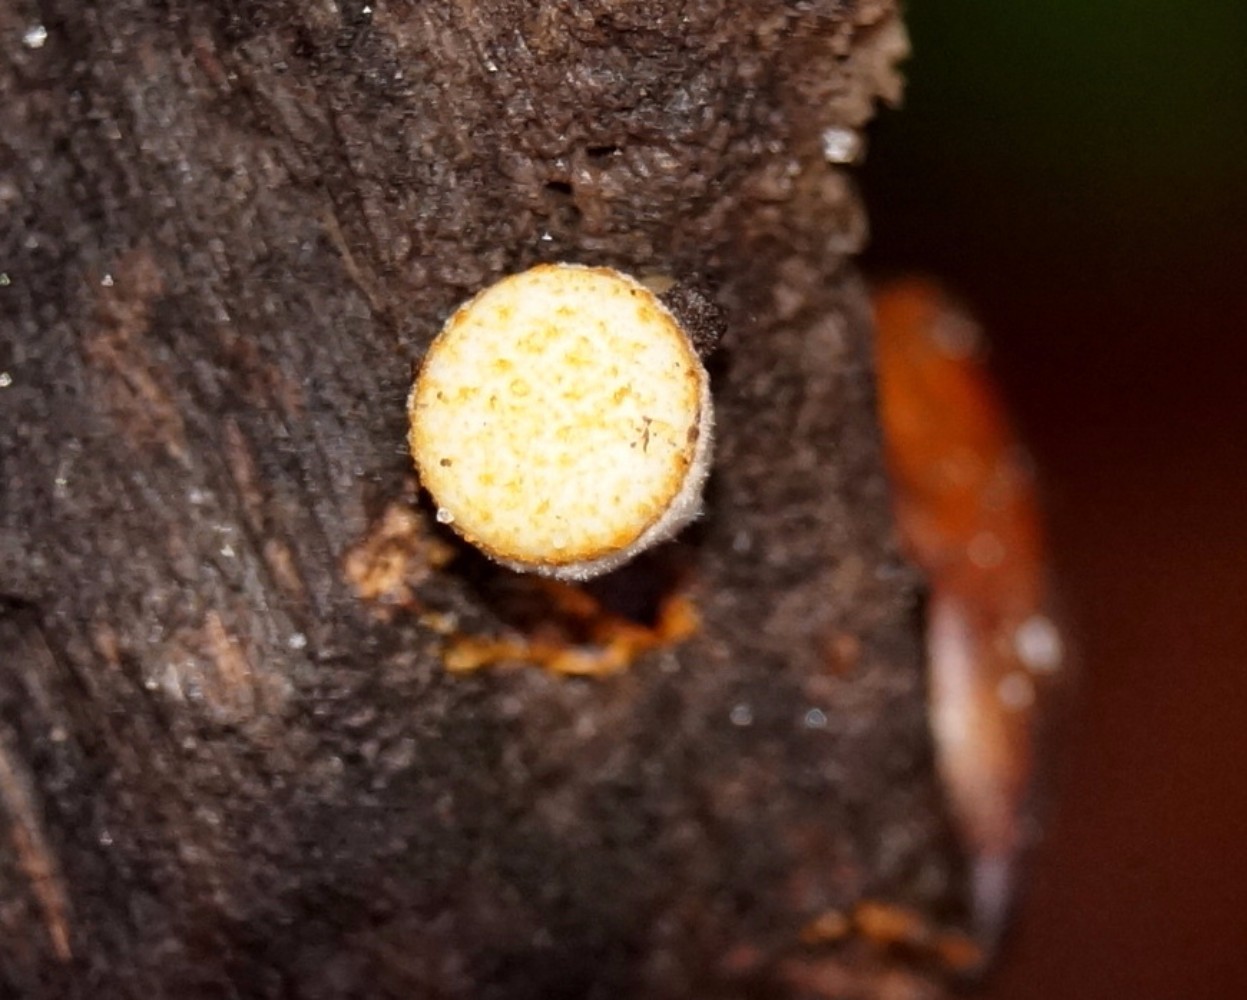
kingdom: Fungi
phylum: Basidiomycota
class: Agaricomycetes
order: Agaricales
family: Nidulariaceae
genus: Crucibulum
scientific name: Crucibulum crucibuliforme
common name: krukkesvamp
